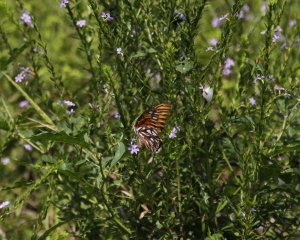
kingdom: Animalia
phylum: Arthropoda
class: Insecta
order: Lepidoptera
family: Nymphalidae
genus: Dione
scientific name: Dione vanillae
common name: Gulf Fritillary
